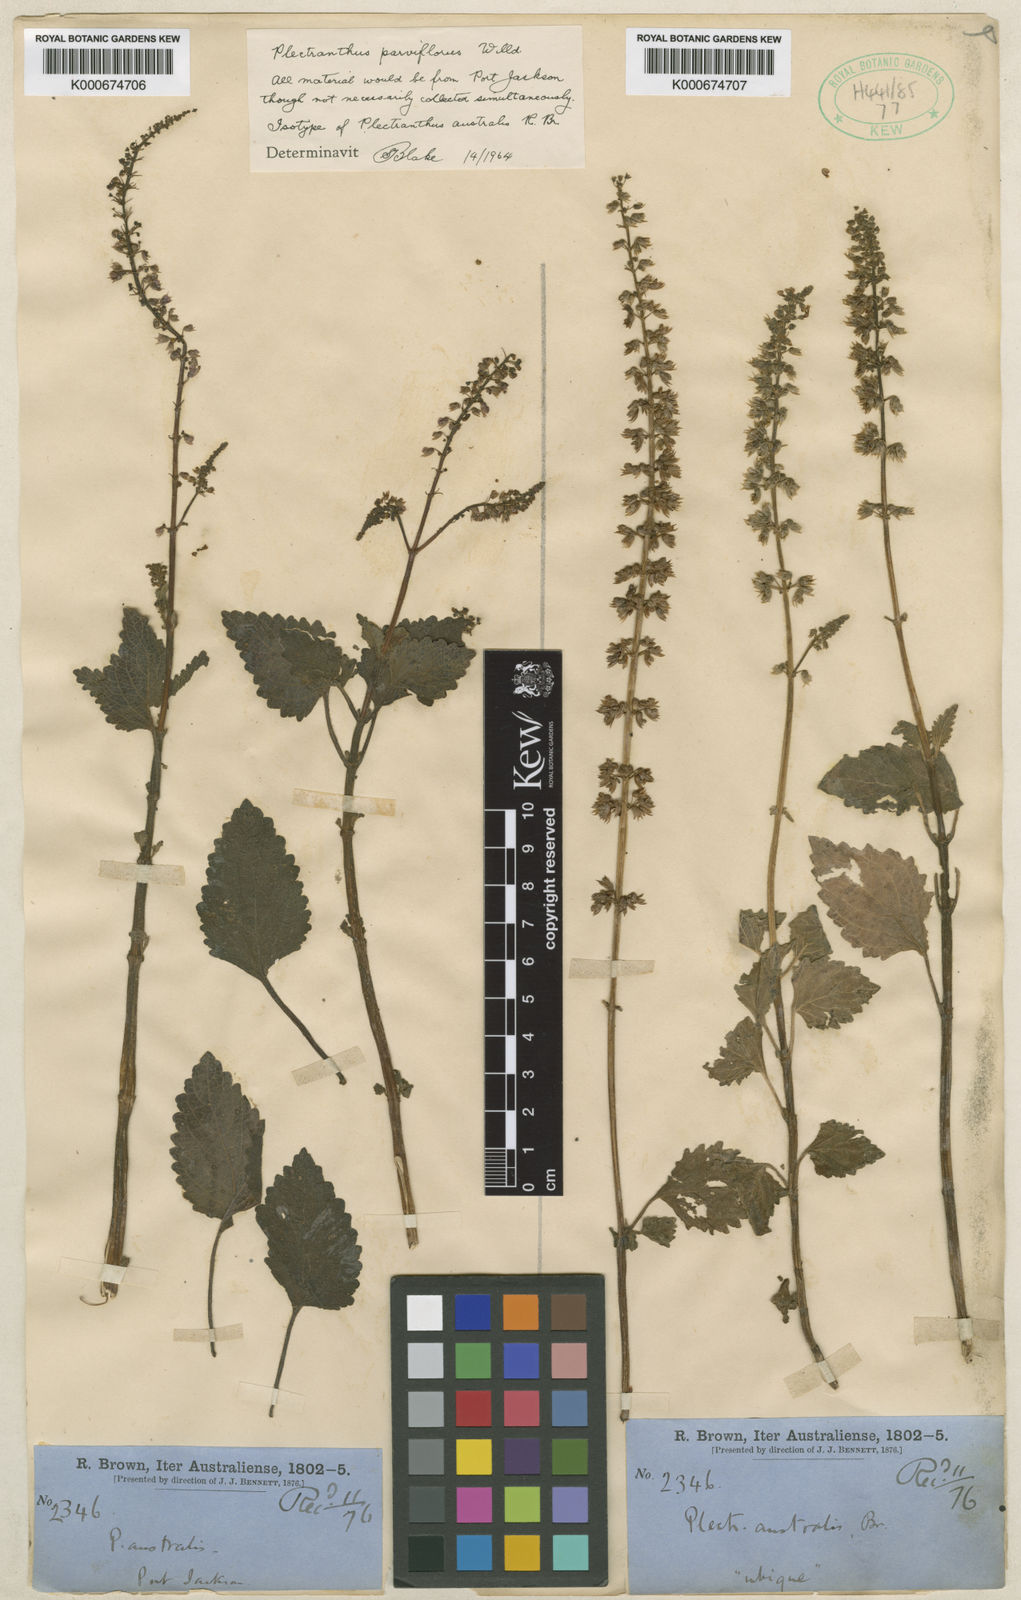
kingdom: Plantae
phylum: Tracheophyta
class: Magnoliopsida
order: Lamiales
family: Lamiaceae
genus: Coleus
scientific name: Coleus australis
